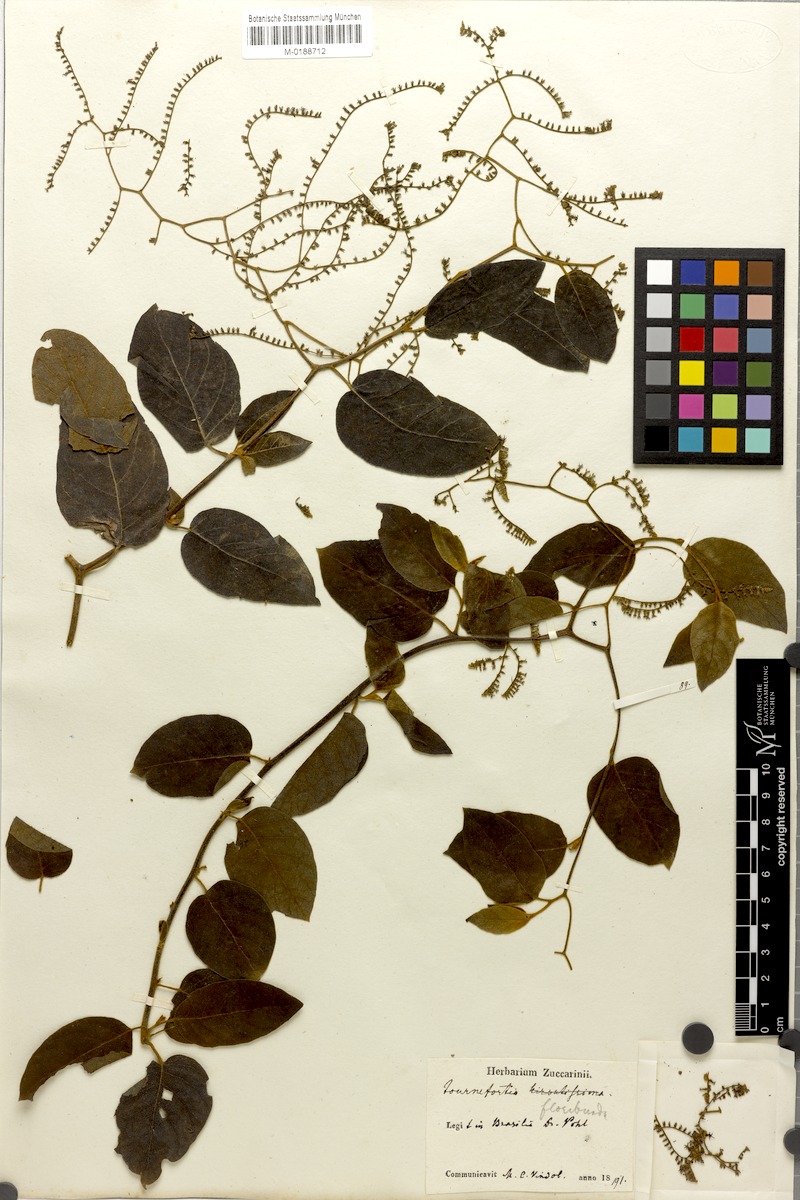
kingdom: Plantae
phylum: Tracheophyta
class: Magnoliopsida
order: Boraginales
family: Heliotropiaceae
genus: Myriopus
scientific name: Myriopus membranaceus
